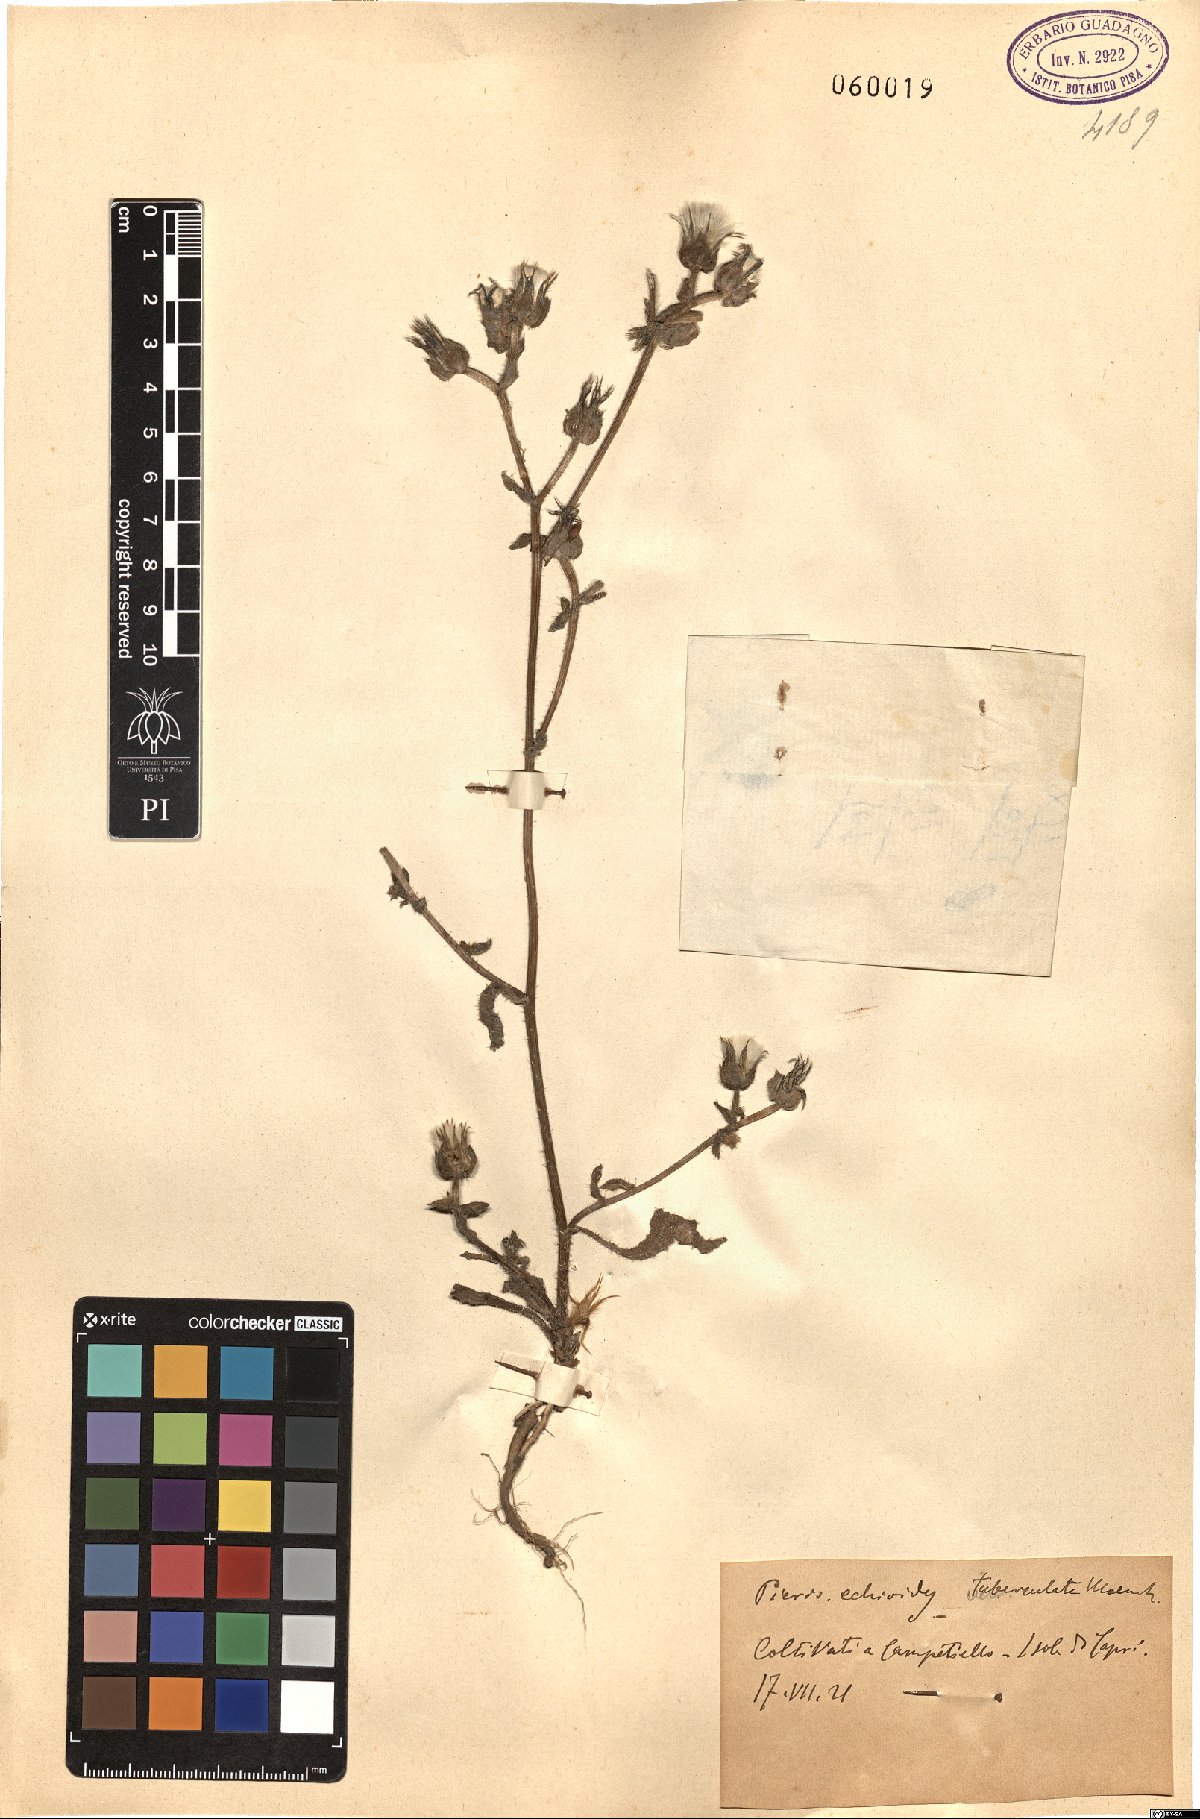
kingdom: Plantae
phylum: Tracheophyta
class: Magnoliopsida
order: Asterales
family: Asteraceae
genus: Helminthotheca
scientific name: Helminthotheca echioides
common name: Ox-tongue
